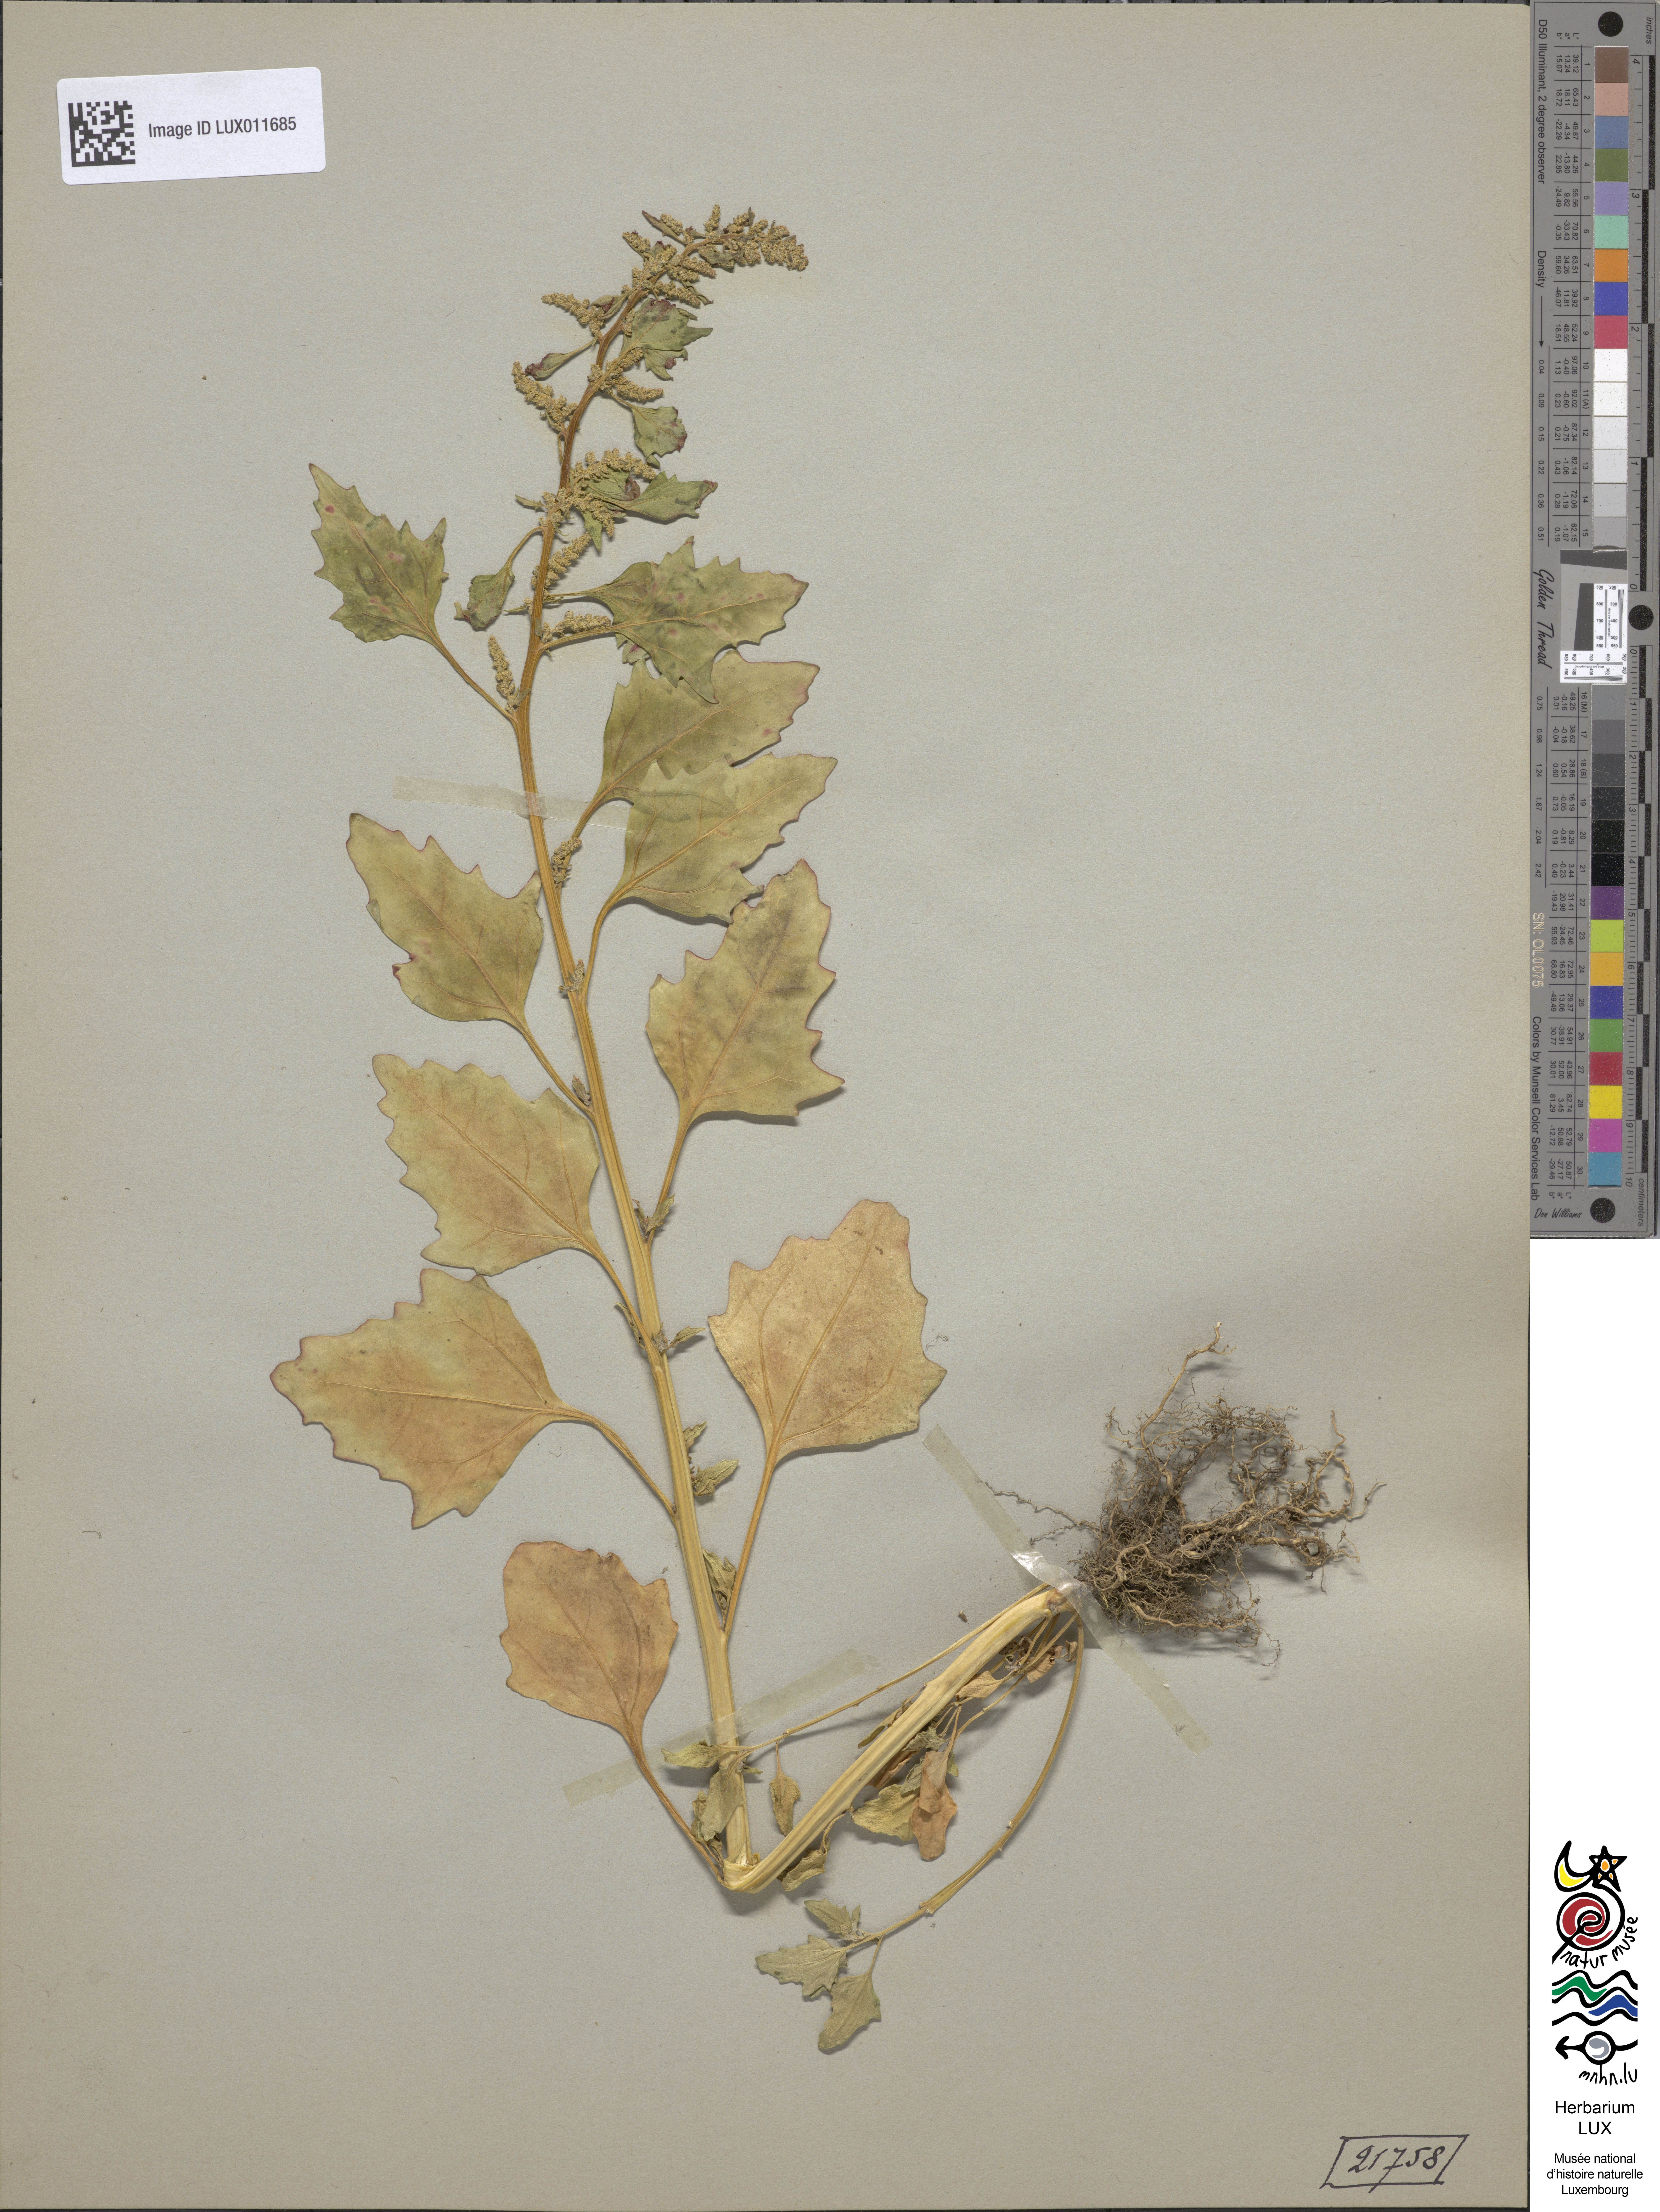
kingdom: Plantae
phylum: Tracheophyta
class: Magnoliopsida
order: Caryophyllales
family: Amaranthaceae
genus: Oxybasis
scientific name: Oxybasis rubra
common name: Red goosefoot
